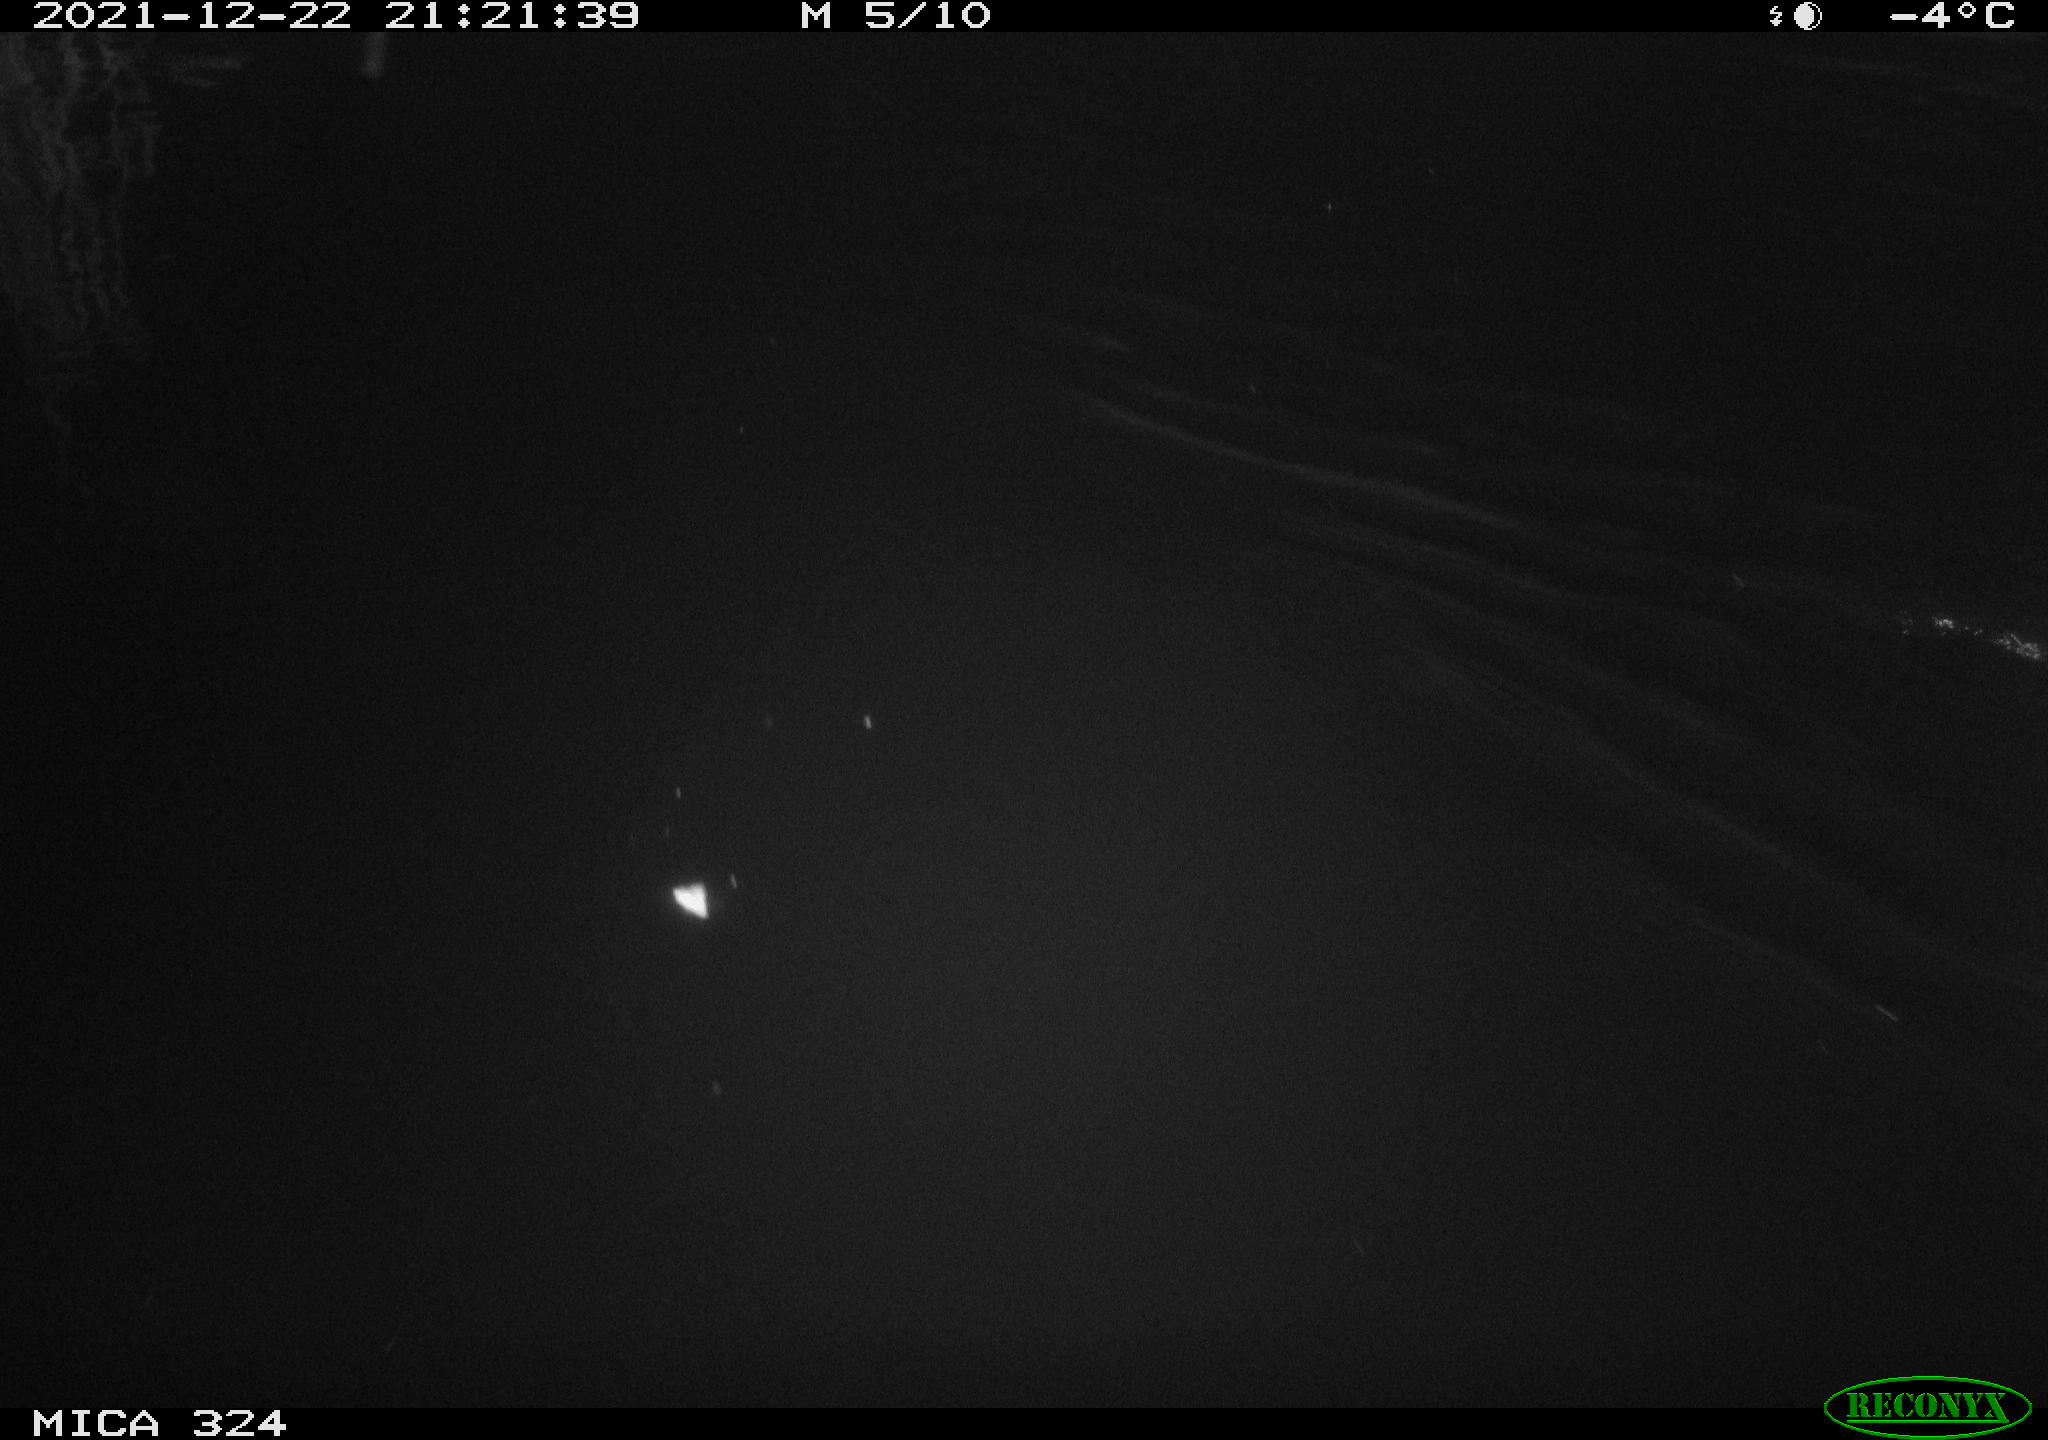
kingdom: Animalia
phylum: Chordata
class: Aves
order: Anseriformes
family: Anatidae
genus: Anas
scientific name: Anas platyrhynchos
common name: Mallard
